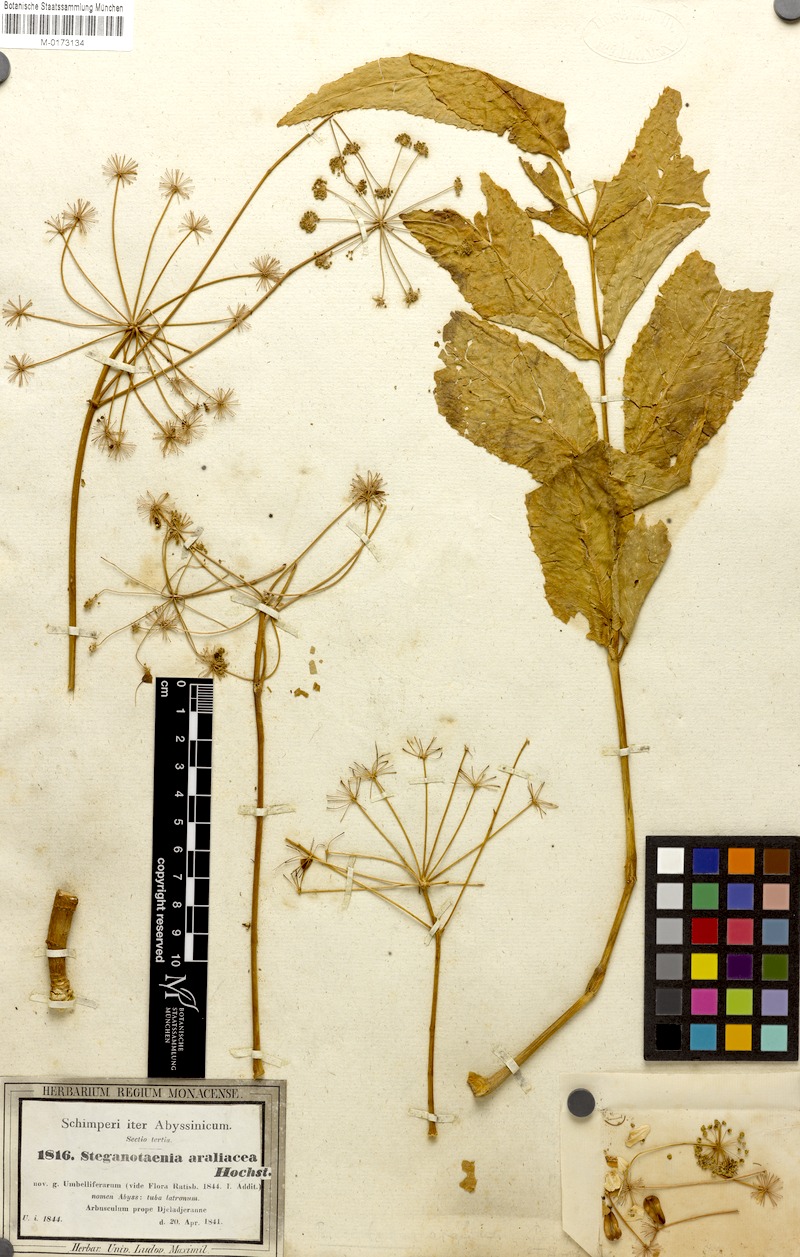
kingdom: Plantae
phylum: Tracheophyta
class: Magnoliopsida
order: Apiales
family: Apiaceae
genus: Steganotaenia
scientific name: Steganotaenia araliacea
